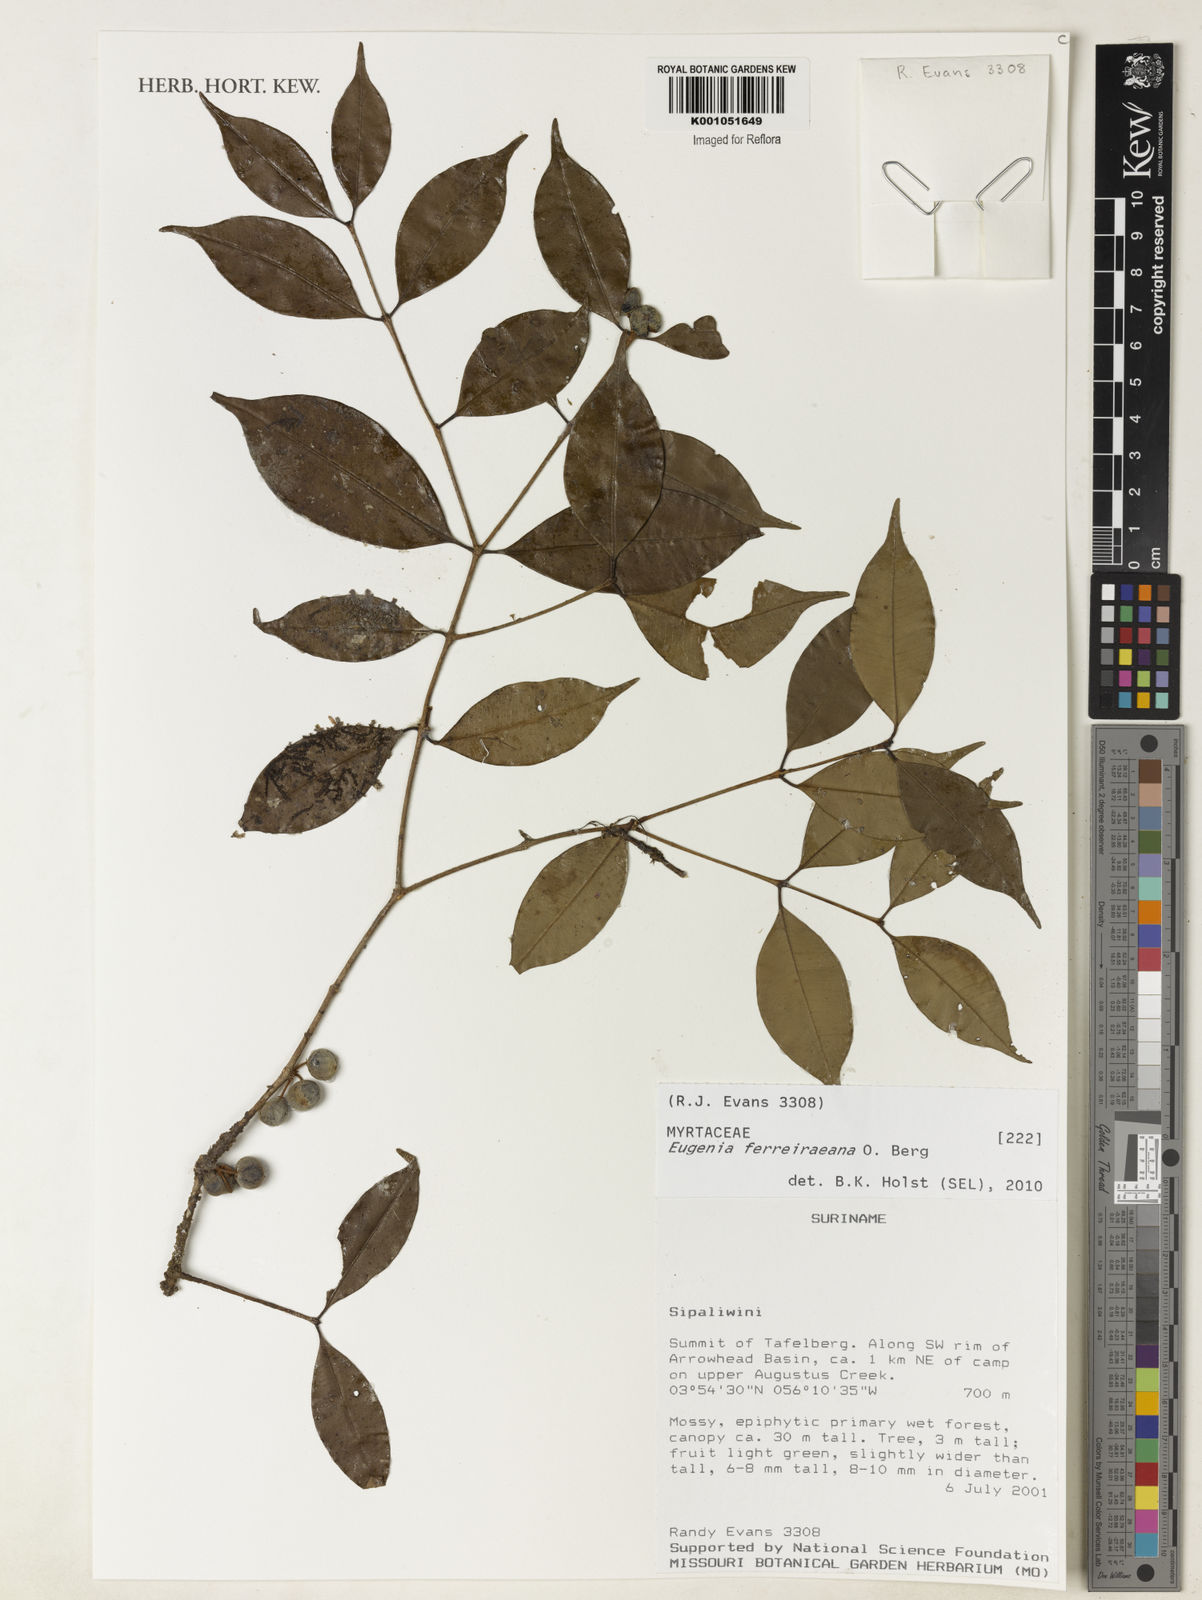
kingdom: Plantae
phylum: Tracheophyta
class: Magnoliopsida
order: Myrtales
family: Myrtaceae
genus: Eugenia
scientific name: Eugenia ferreiraeana
